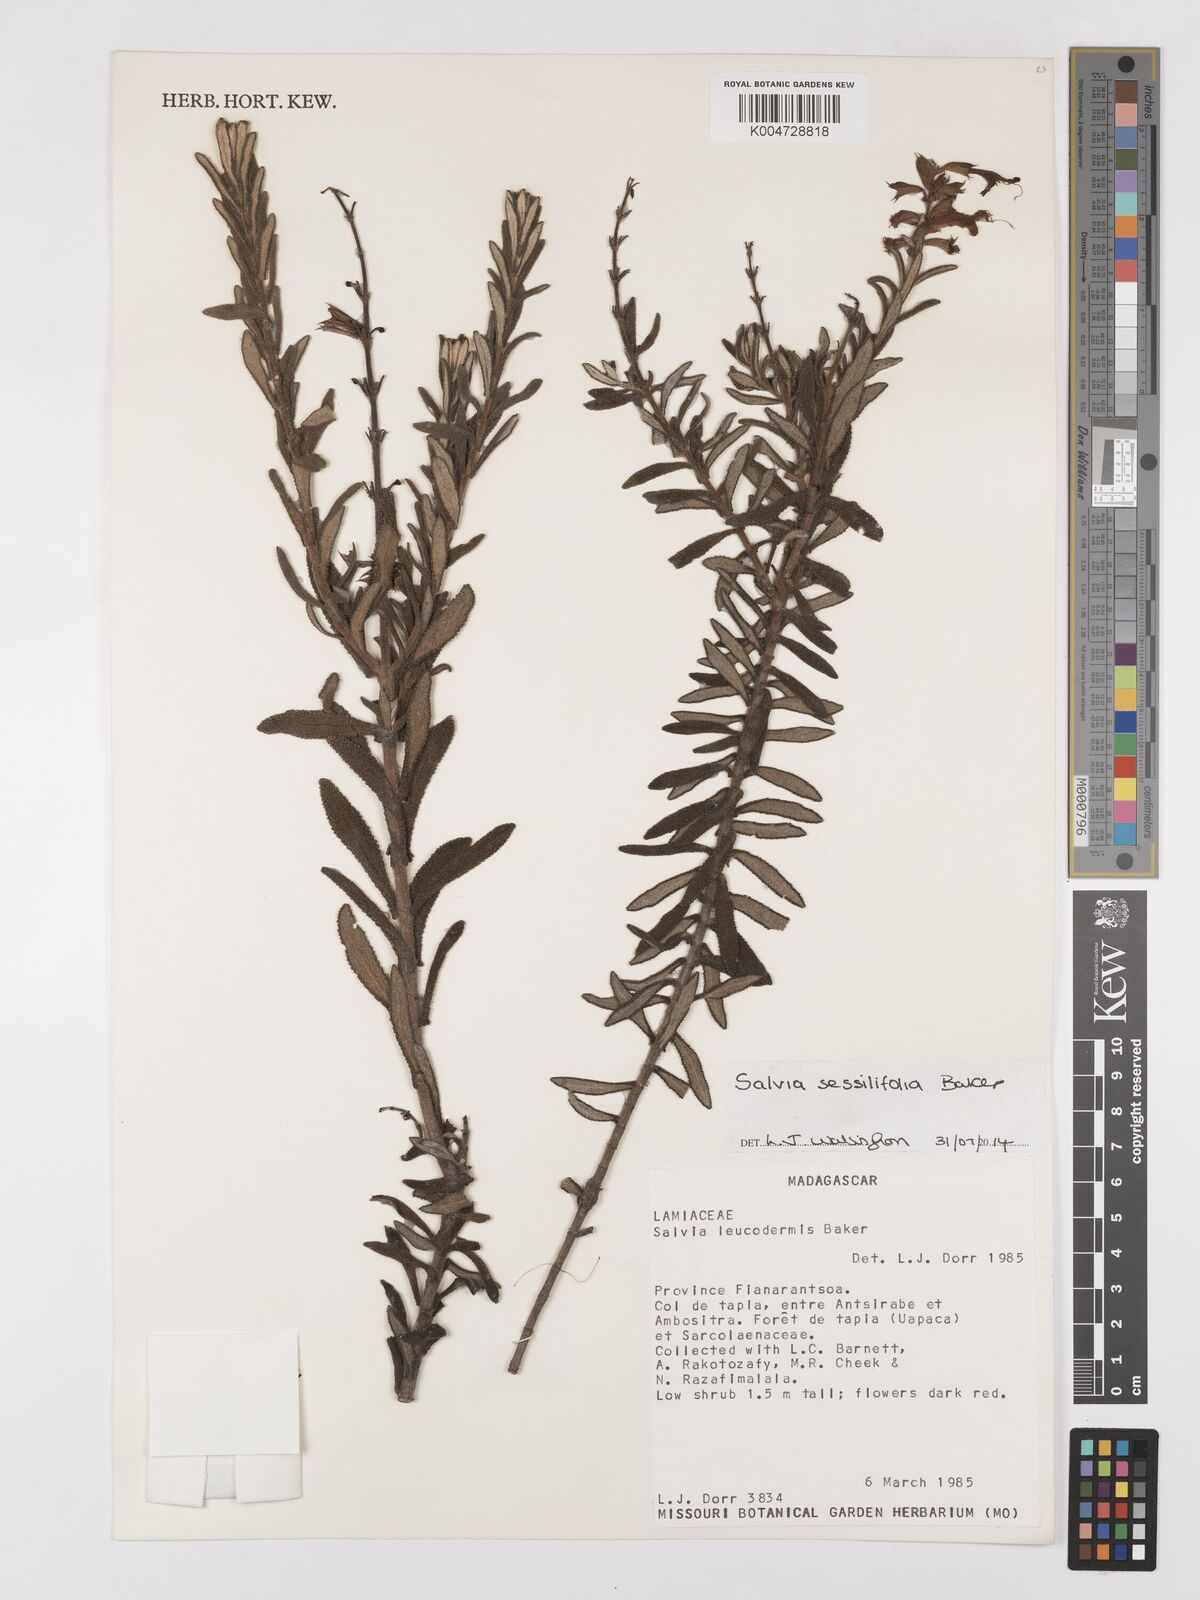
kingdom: Plantae
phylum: Tracheophyta
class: Magnoliopsida
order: Lamiales
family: Lamiaceae
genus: Salvia
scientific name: Salvia sessilifolia
